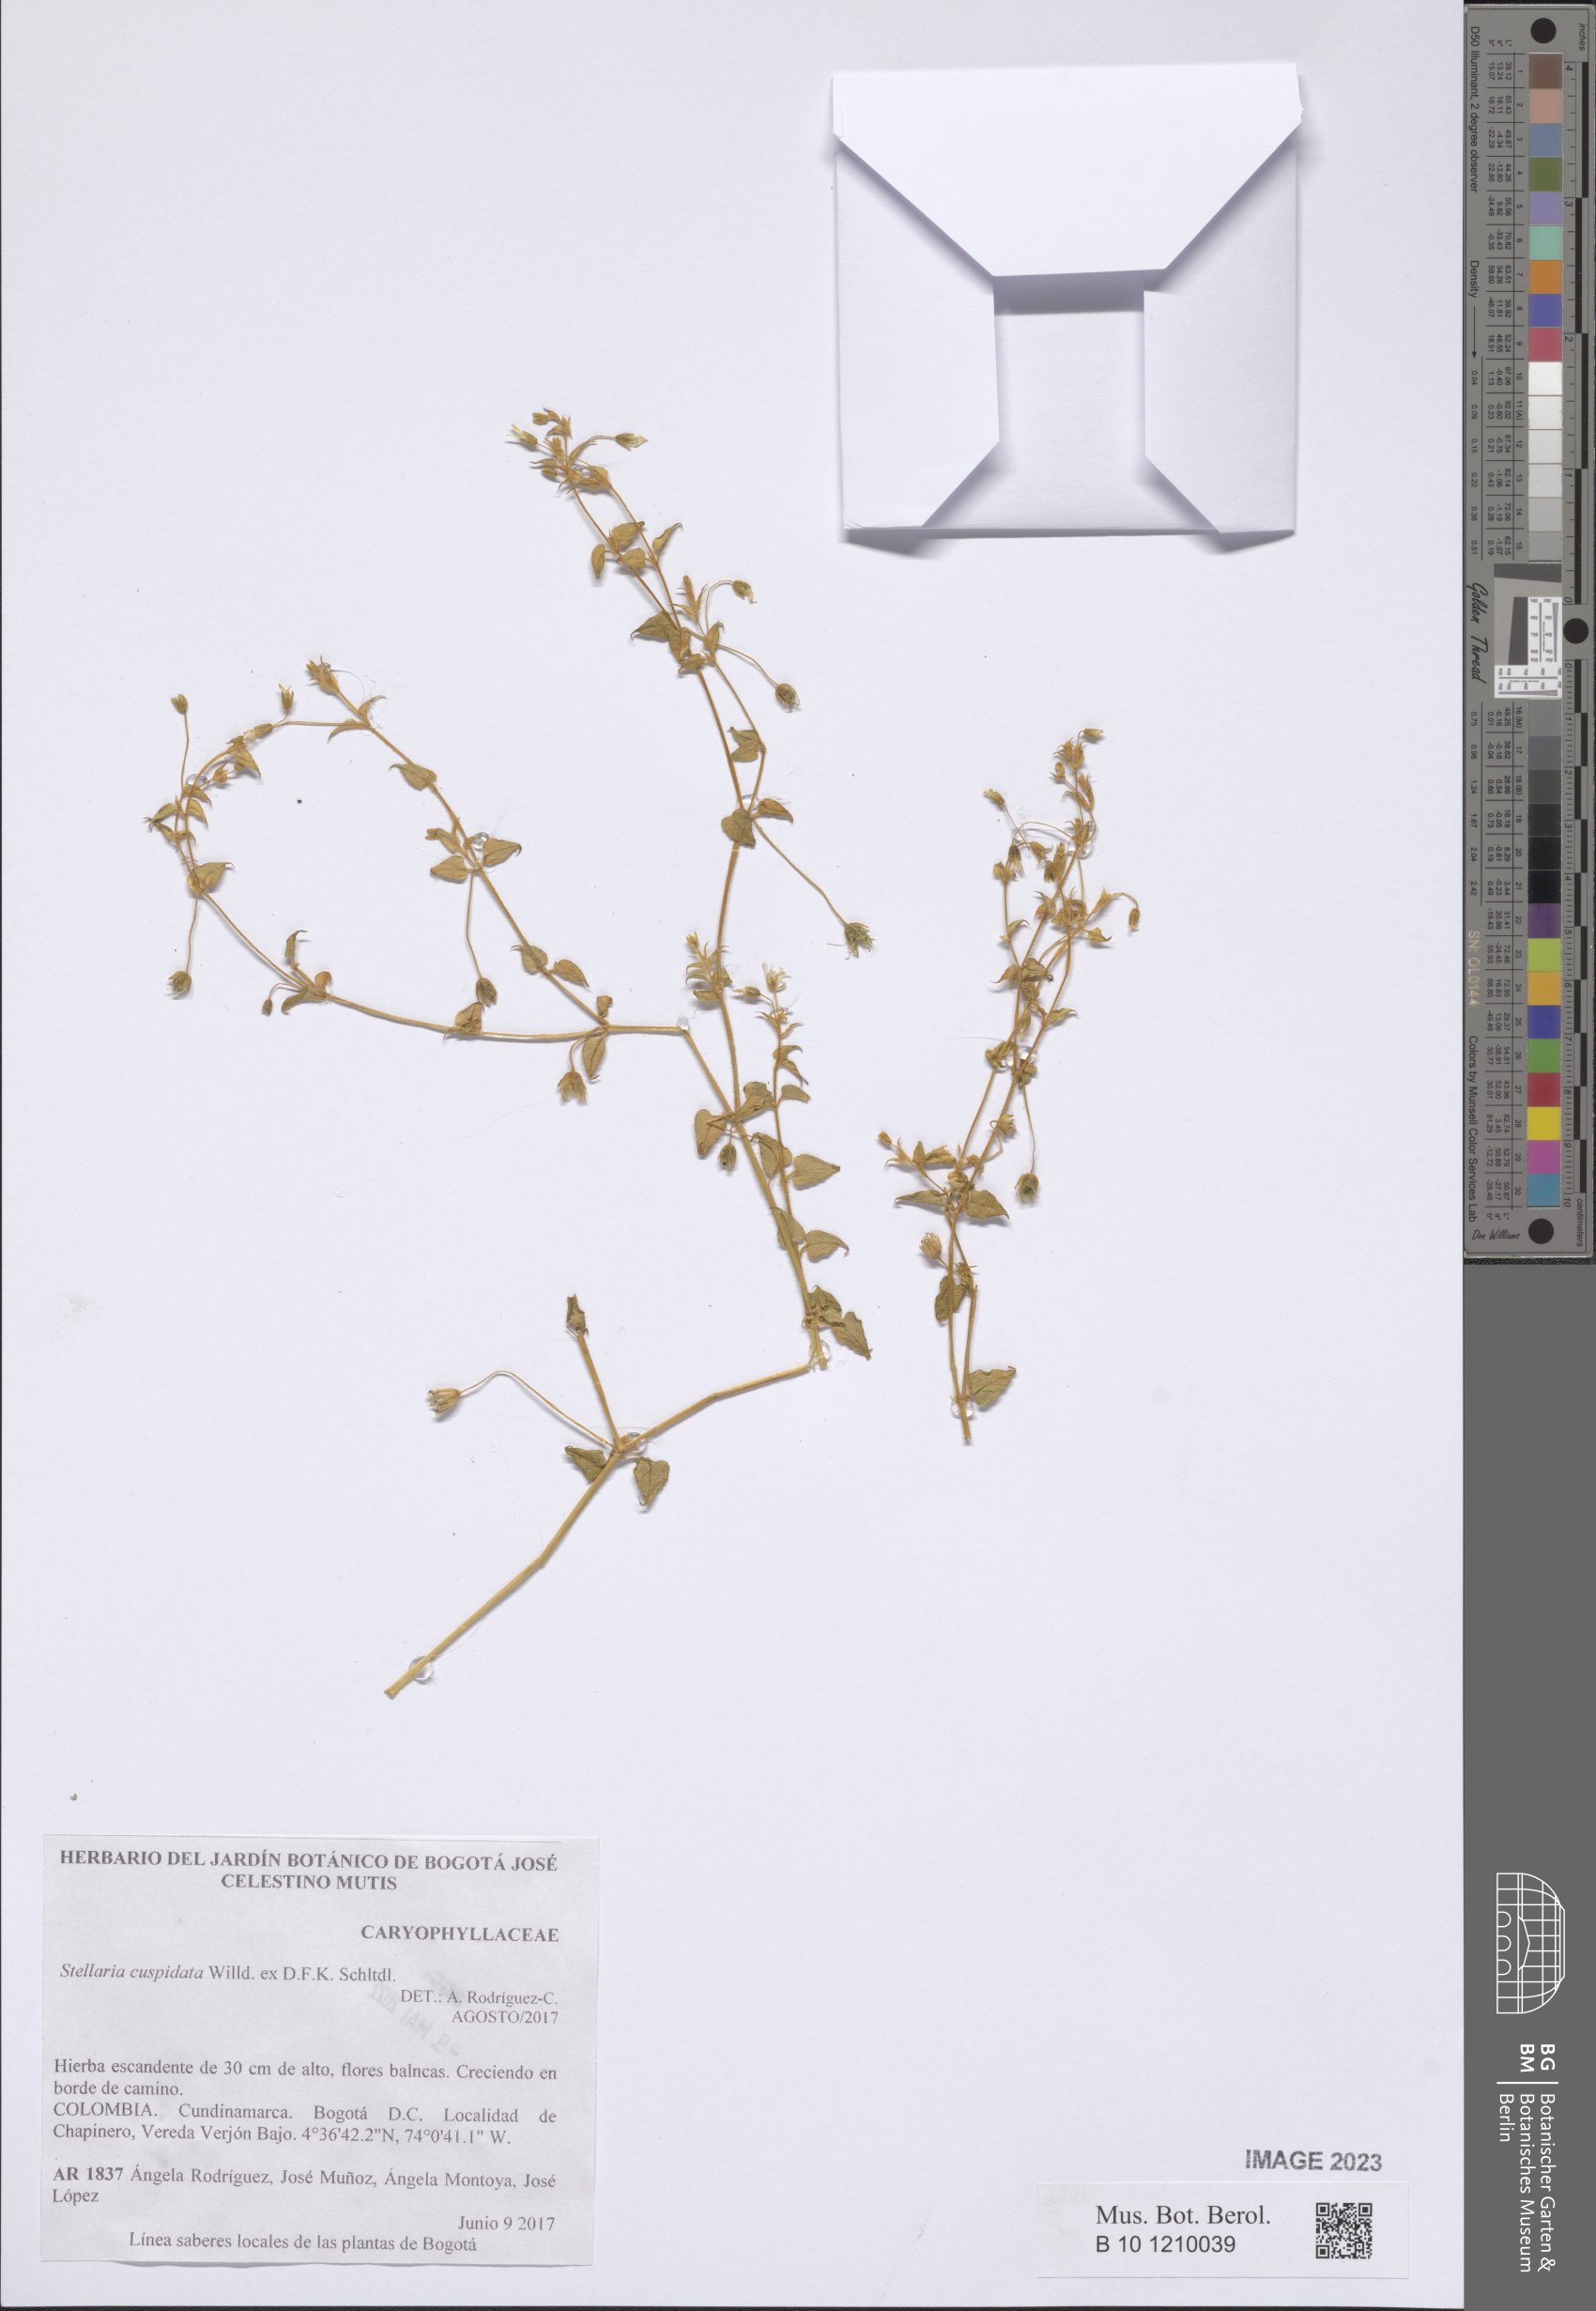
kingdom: Plantae
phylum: Tracheophyta
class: Magnoliopsida
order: Caryophyllales
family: Caryophyllaceae
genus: Stellaria
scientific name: Stellaria cuspidata
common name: Mexican chickweed
